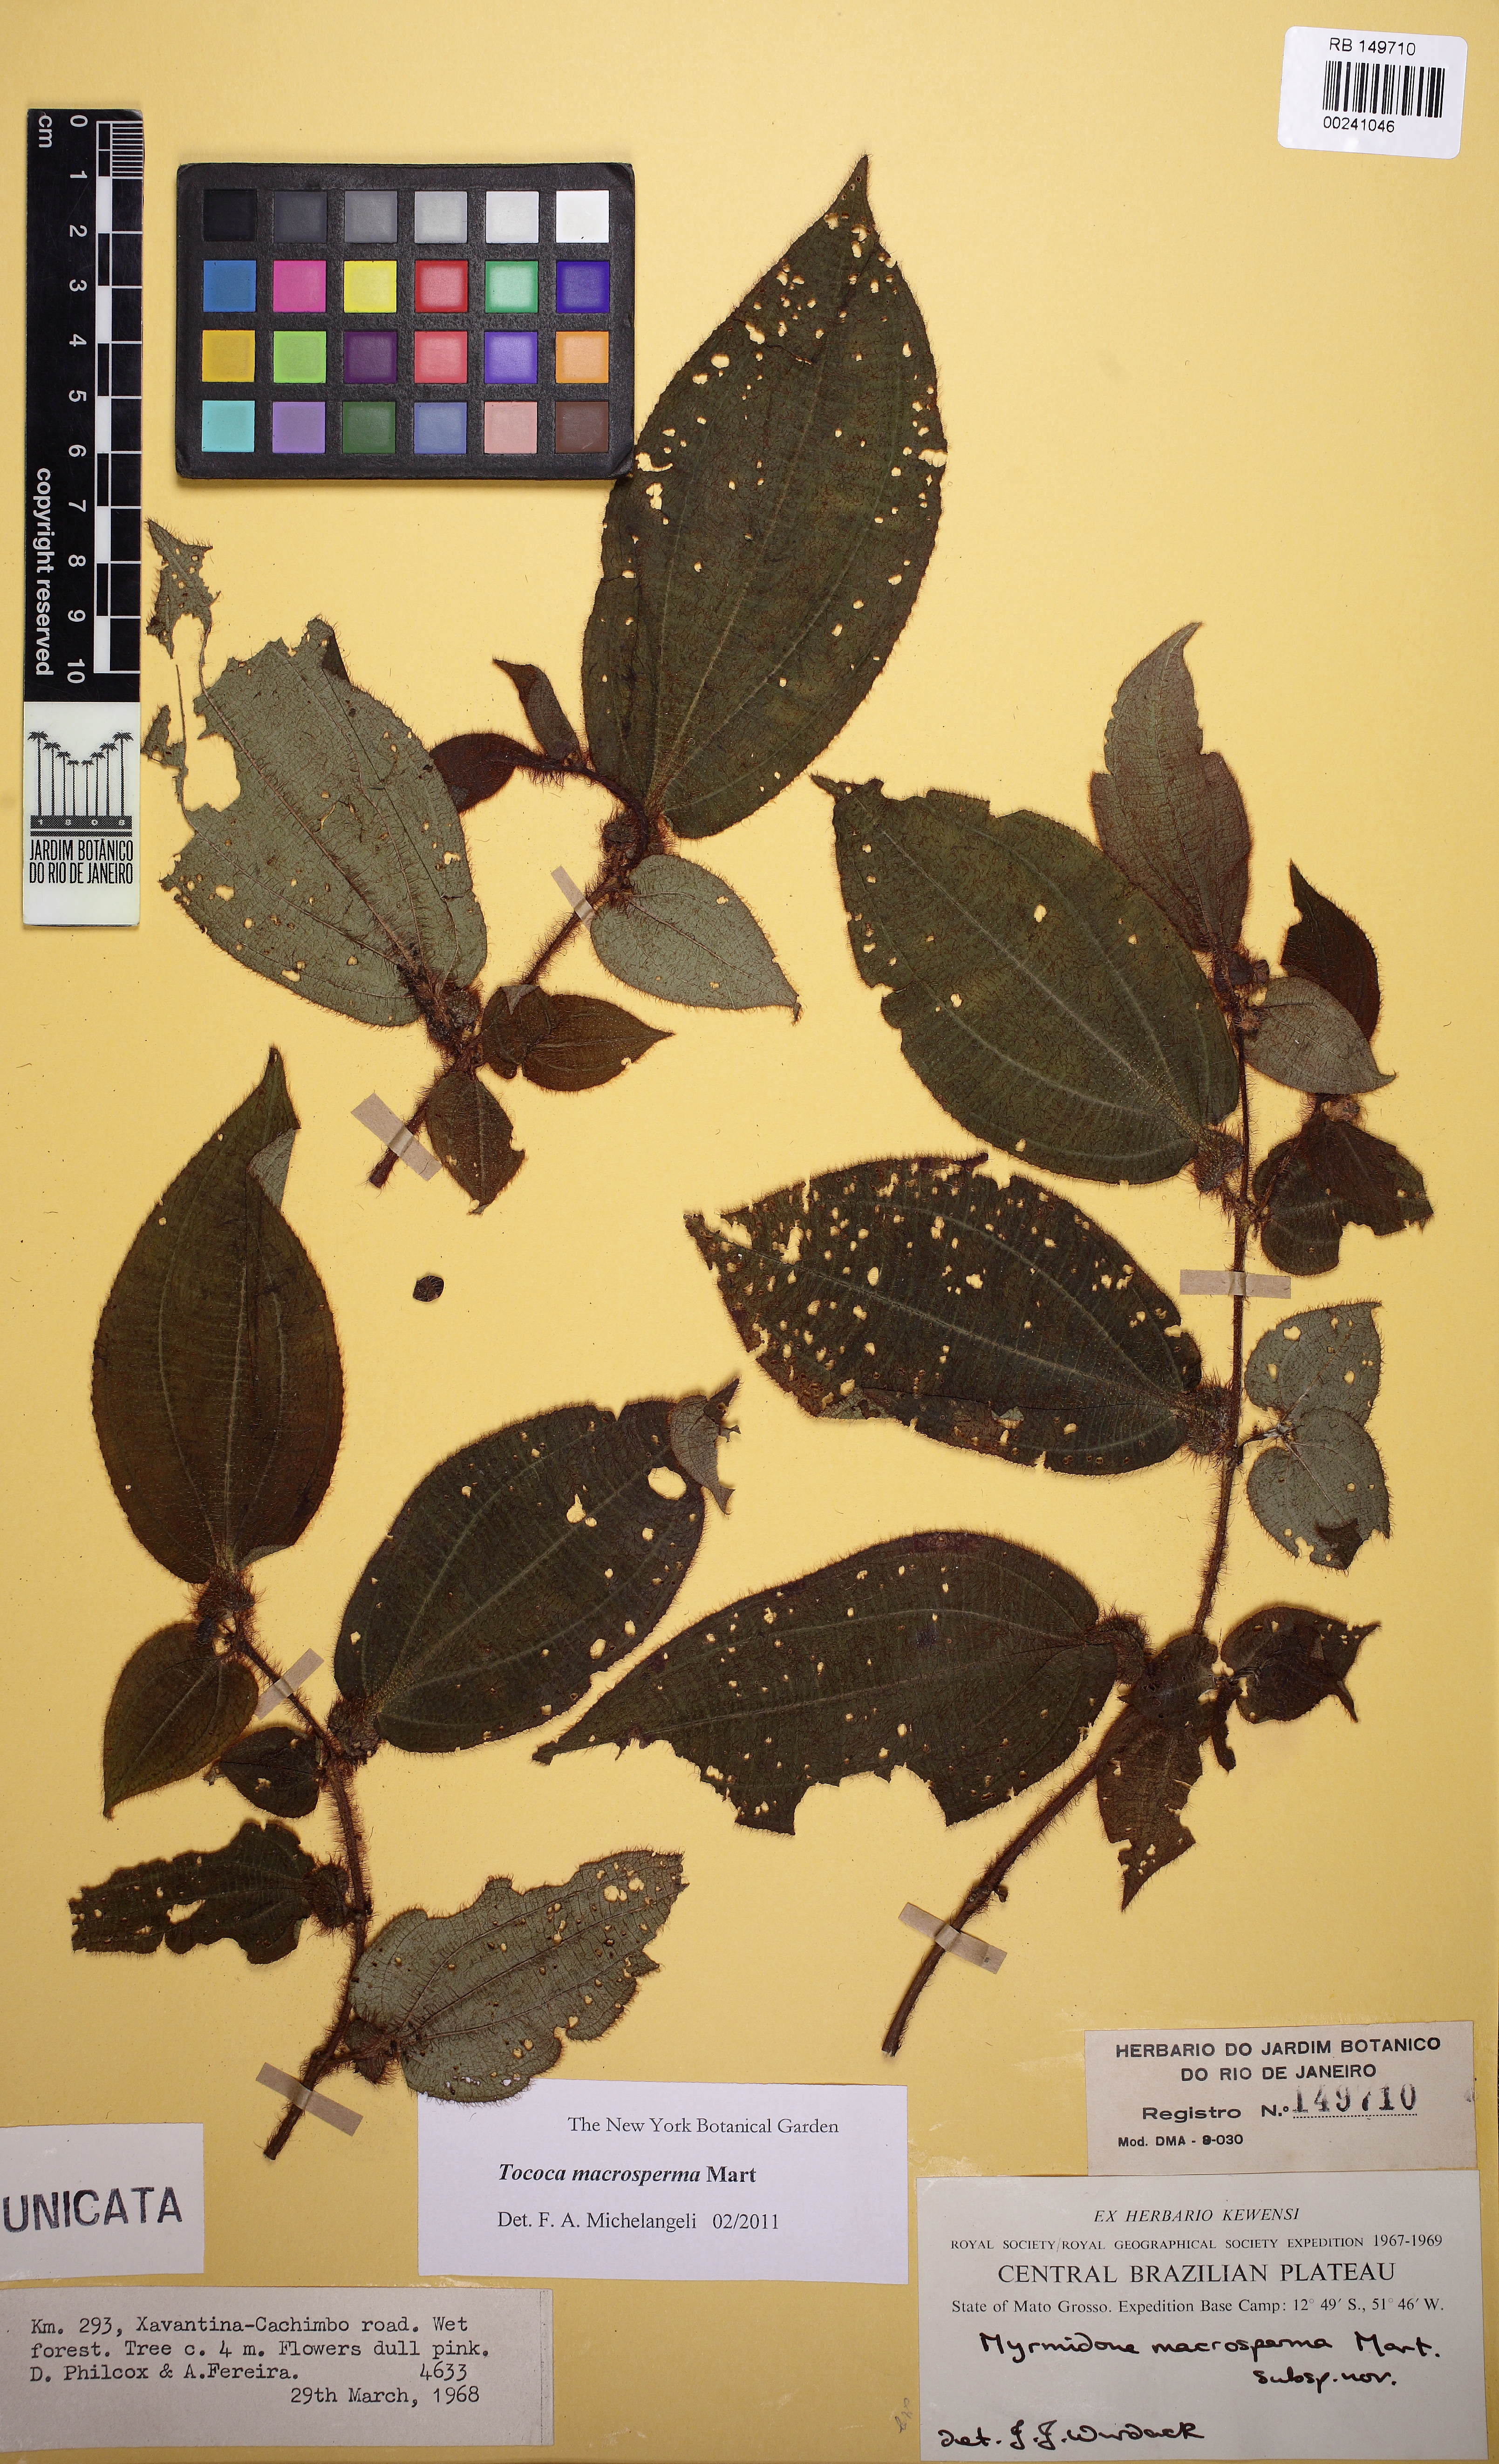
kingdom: Plantae
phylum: Tracheophyta
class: Magnoliopsida
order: Myrtales
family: Melastomataceae
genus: Miconia
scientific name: Miconia macrosperma
